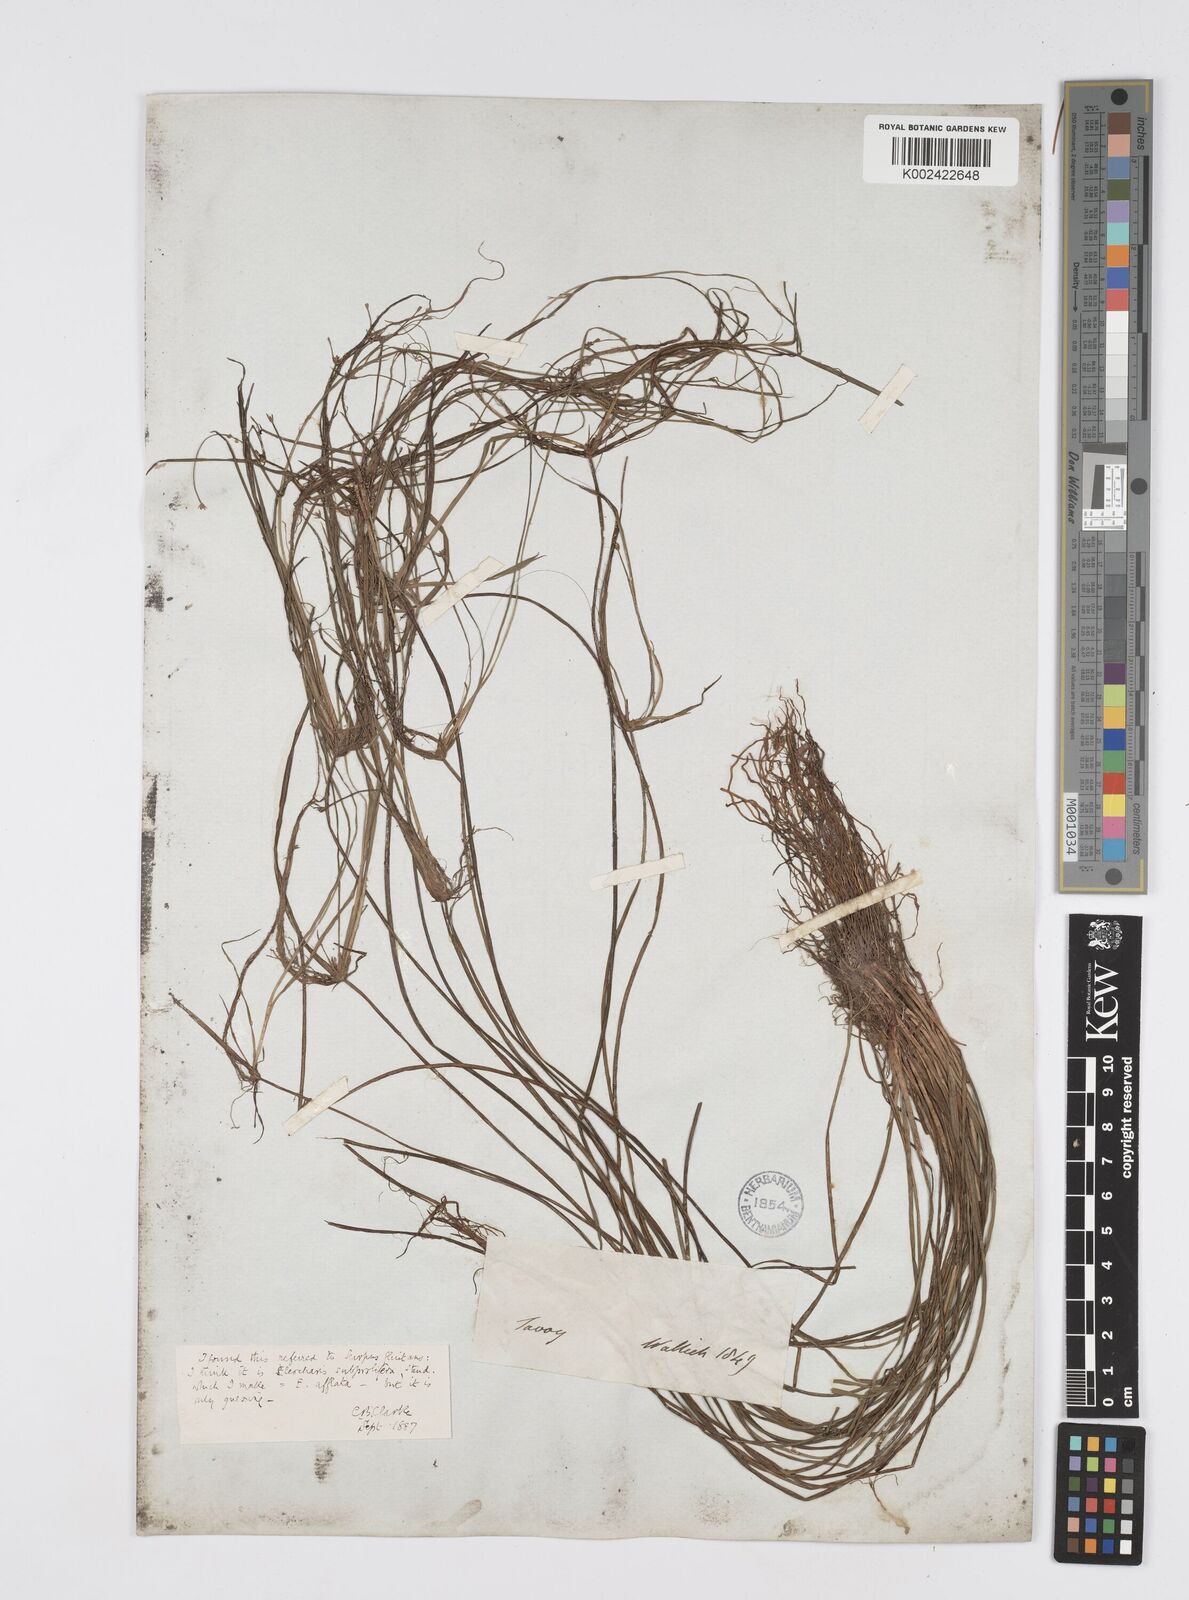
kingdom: Plantae
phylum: Tracheophyta
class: Liliopsida
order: Poales
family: Cyperaceae
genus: Eleocharis
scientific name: Eleocharis pellucida
